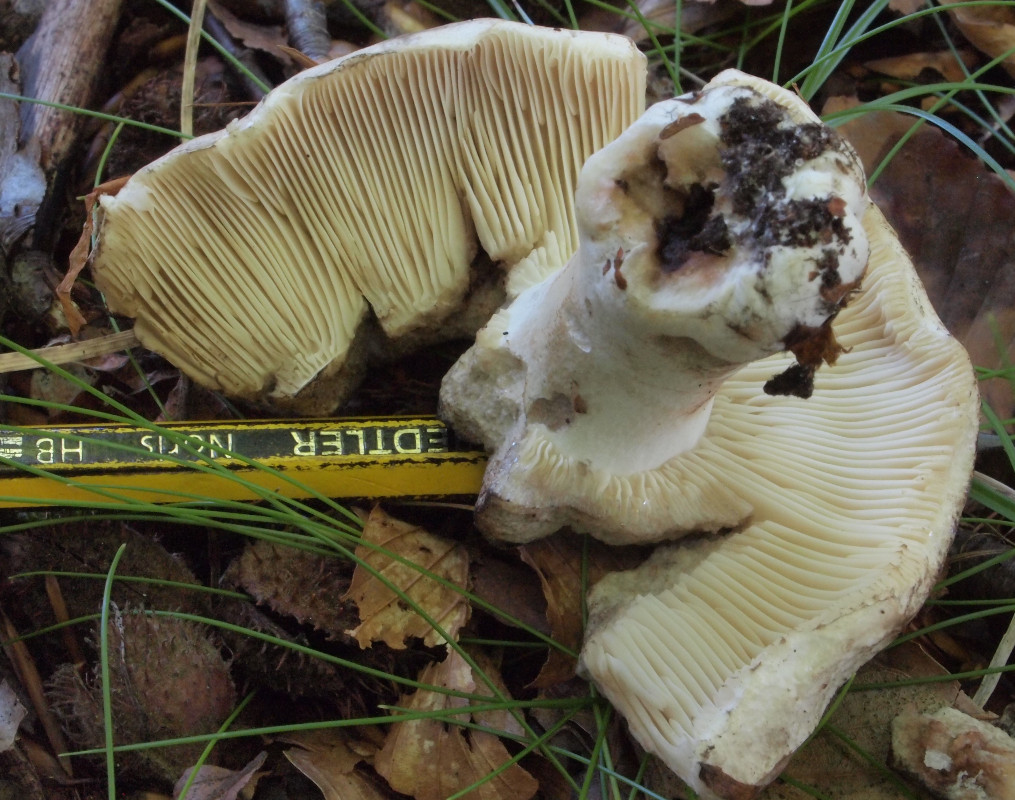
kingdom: Fungi
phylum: Basidiomycota
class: Agaricomycetes
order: Russulales
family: Russulaceae
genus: Russula
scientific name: Russula densifolia
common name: tætbladet skørhat
